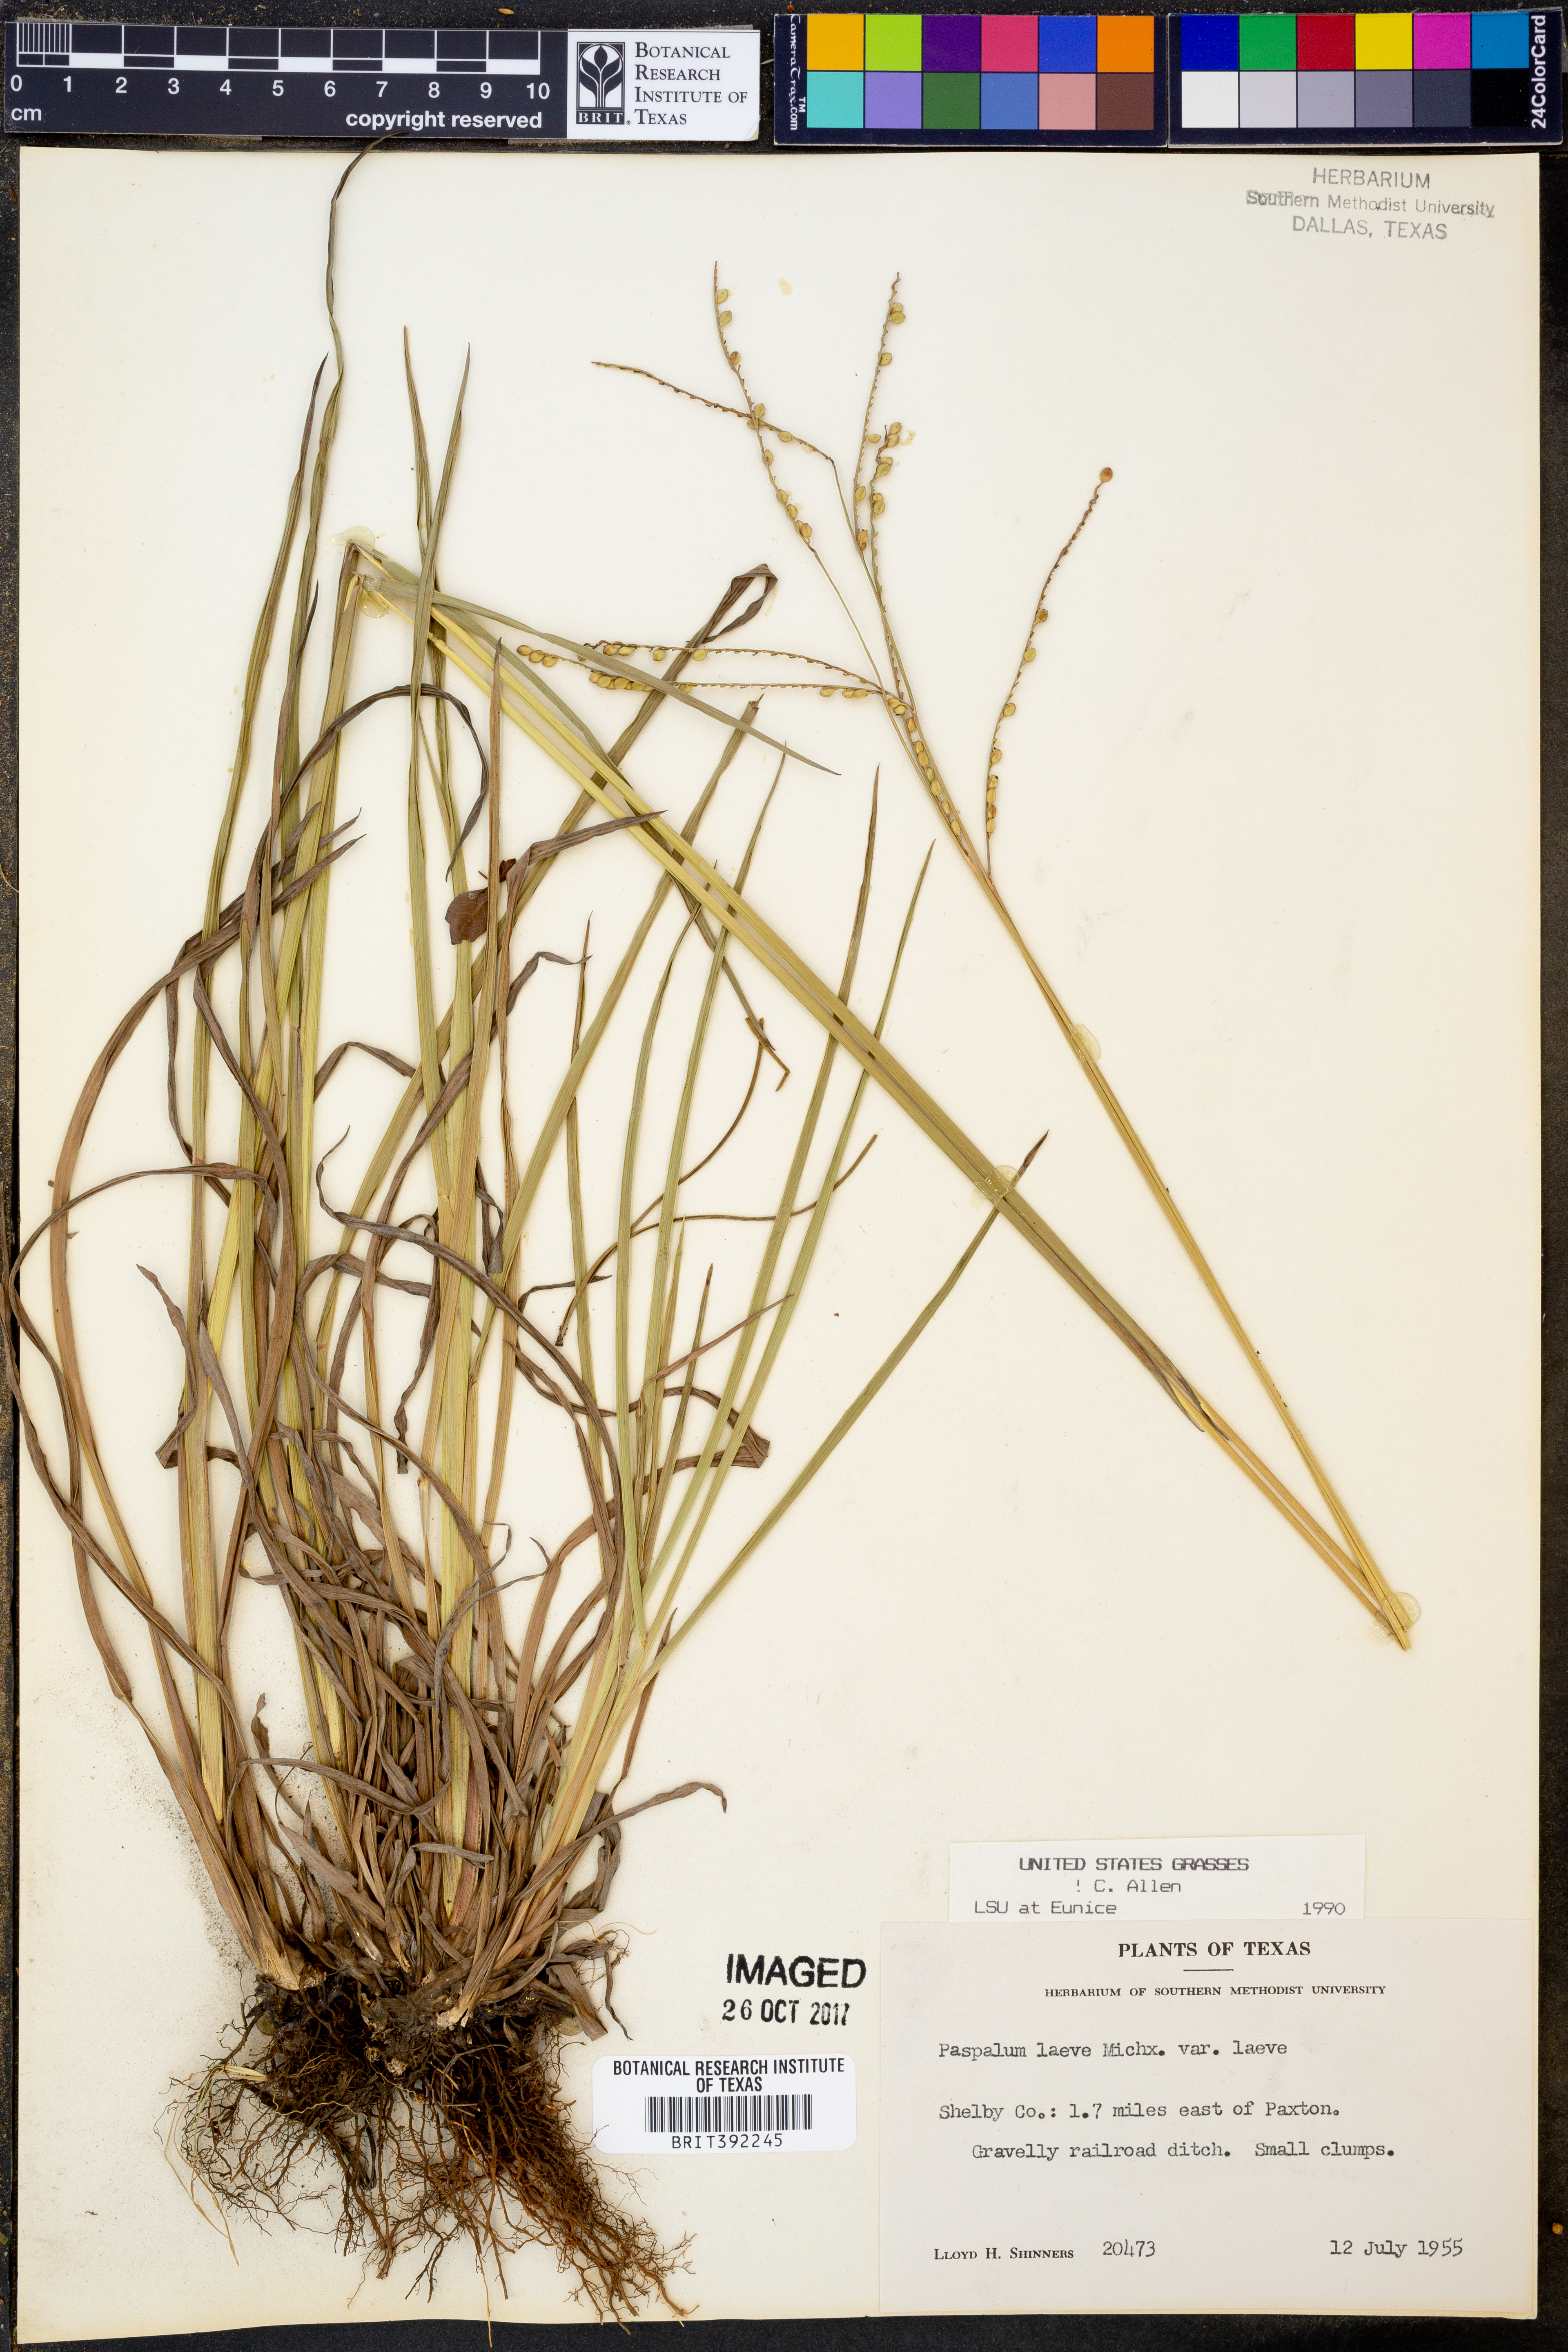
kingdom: Plantae
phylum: Tracheophyta
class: Liliopsida
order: Poales
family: Poaceae
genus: Paspalum
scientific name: Paspalum laeve
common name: Field paspalum
